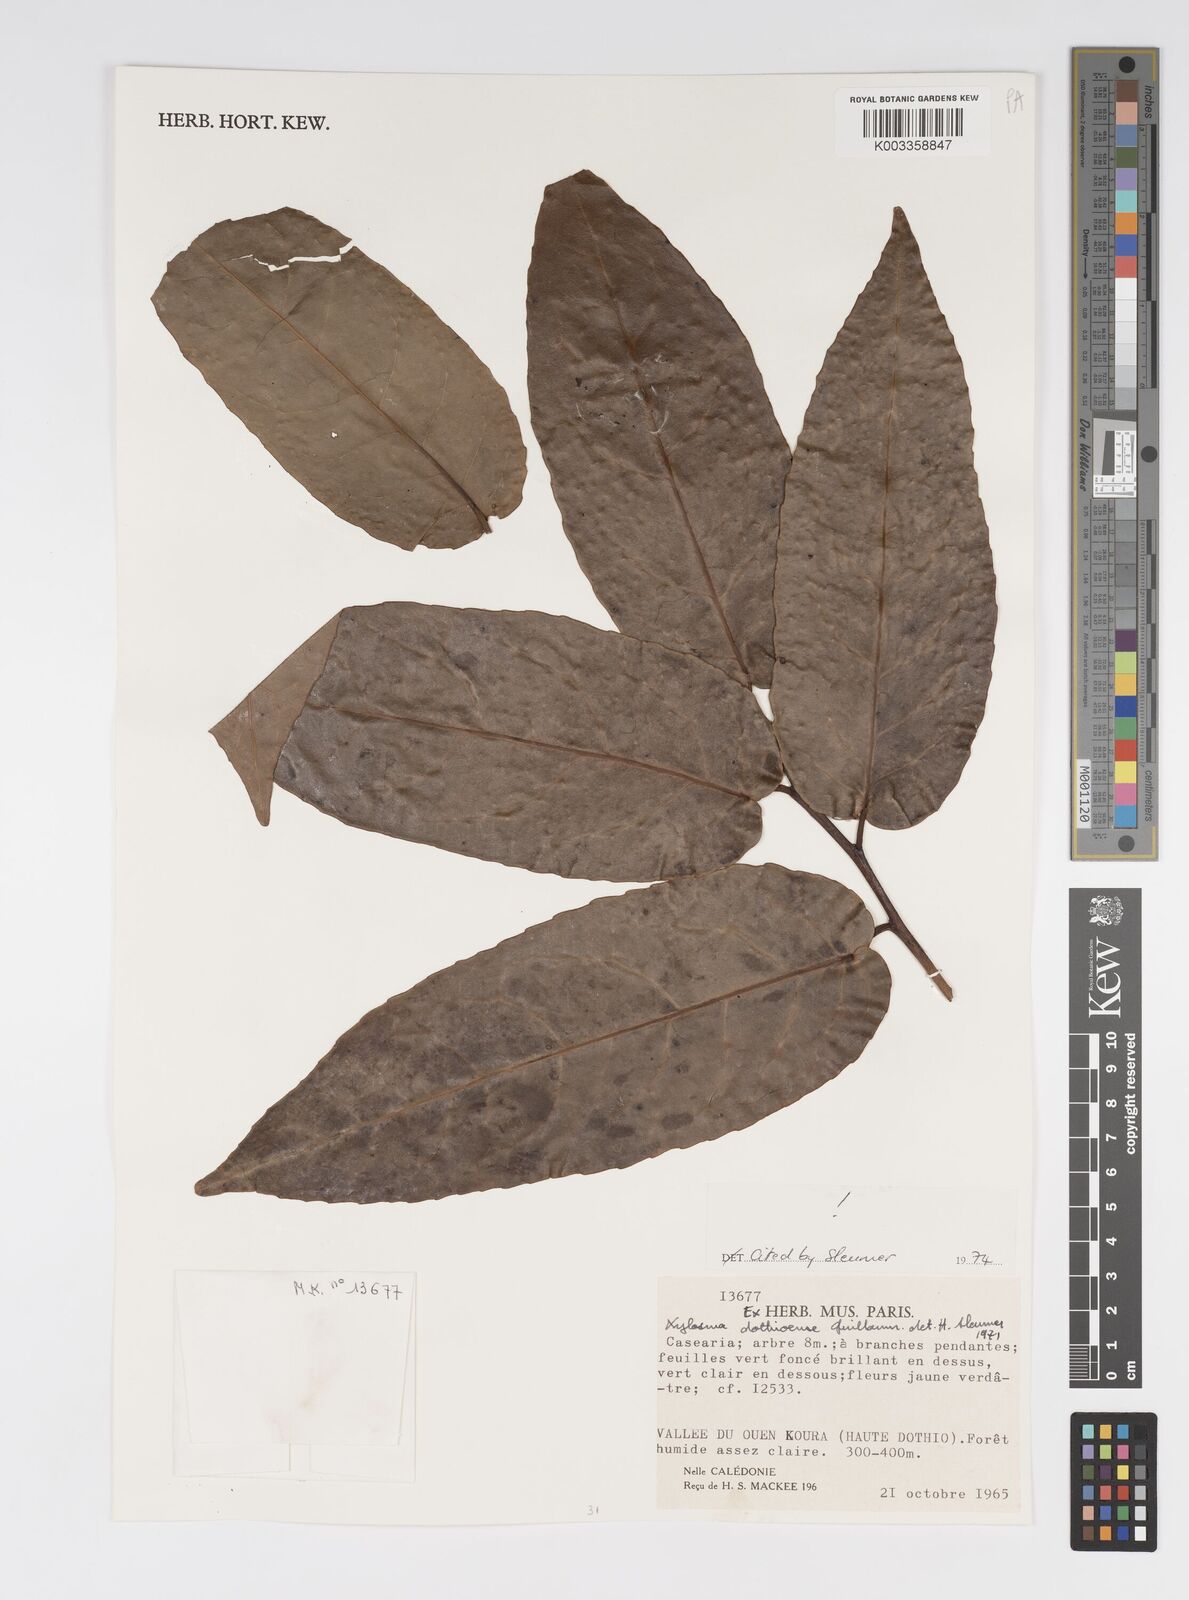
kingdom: Plantae
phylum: Tracheophyta
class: Magnoliopsida
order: Malpighiales
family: Salicaceae
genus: Xylosma
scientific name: Xylosma dothioensis
